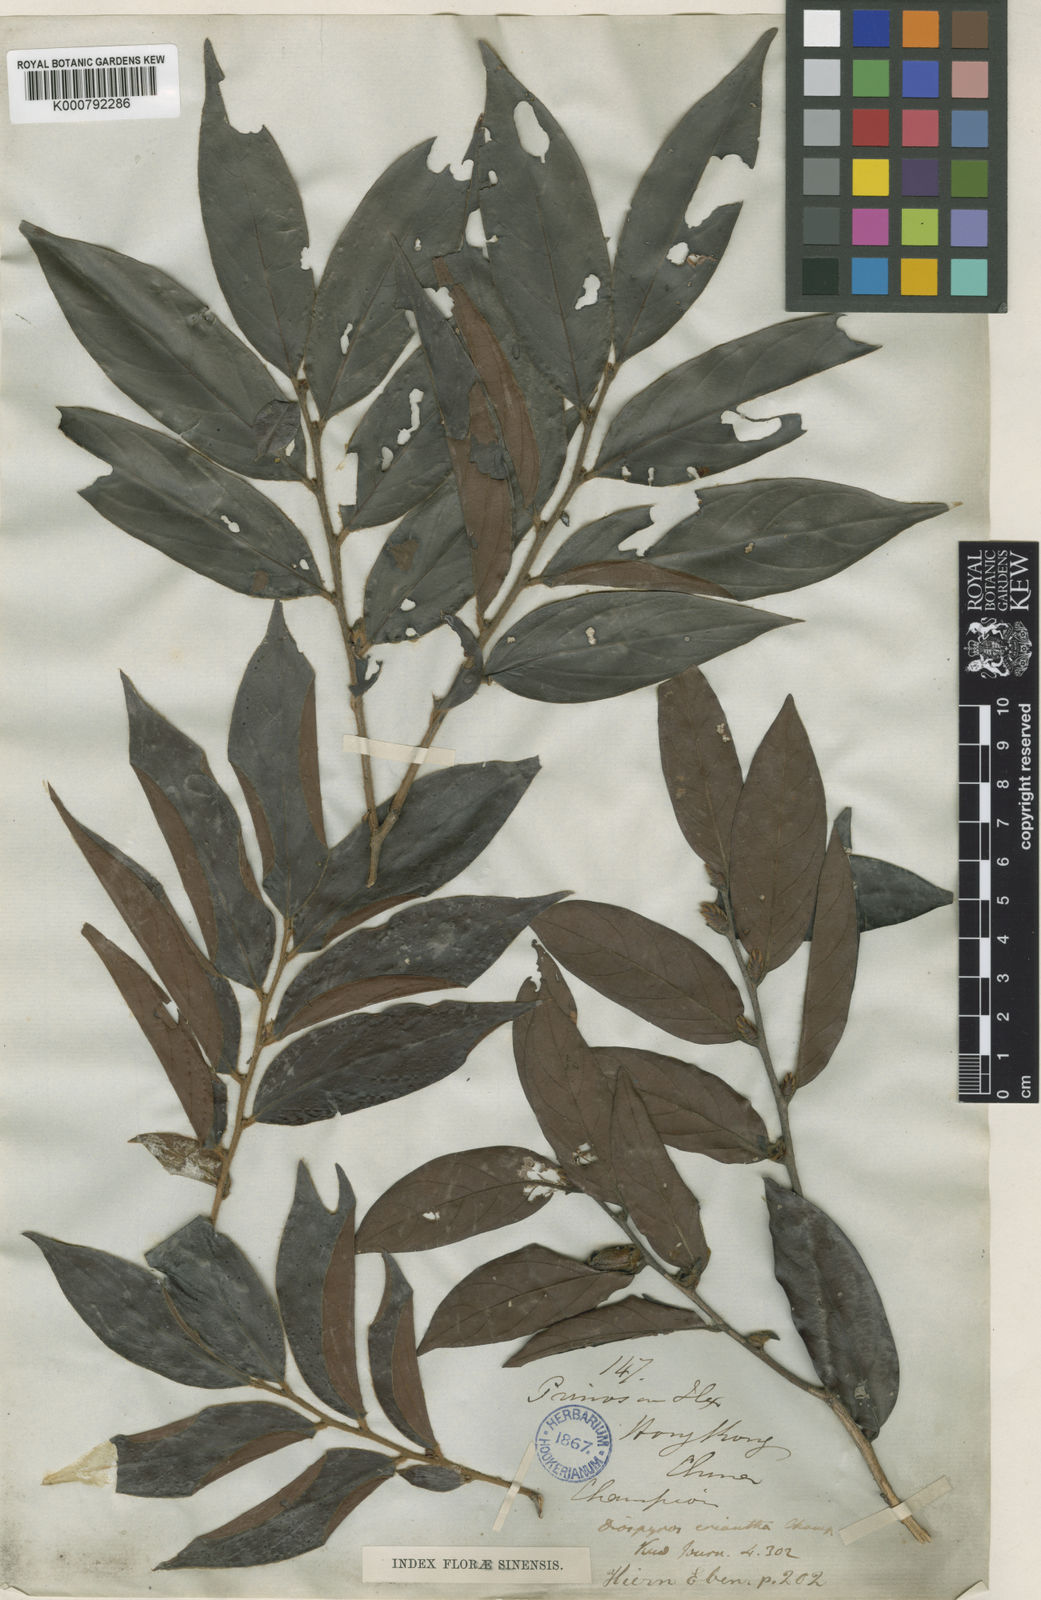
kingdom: Plantae
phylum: Tracheophyta
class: Magnoliopsida
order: Ericales
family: Ebenaceae
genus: Diospyros
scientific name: Diospyros eriantha
